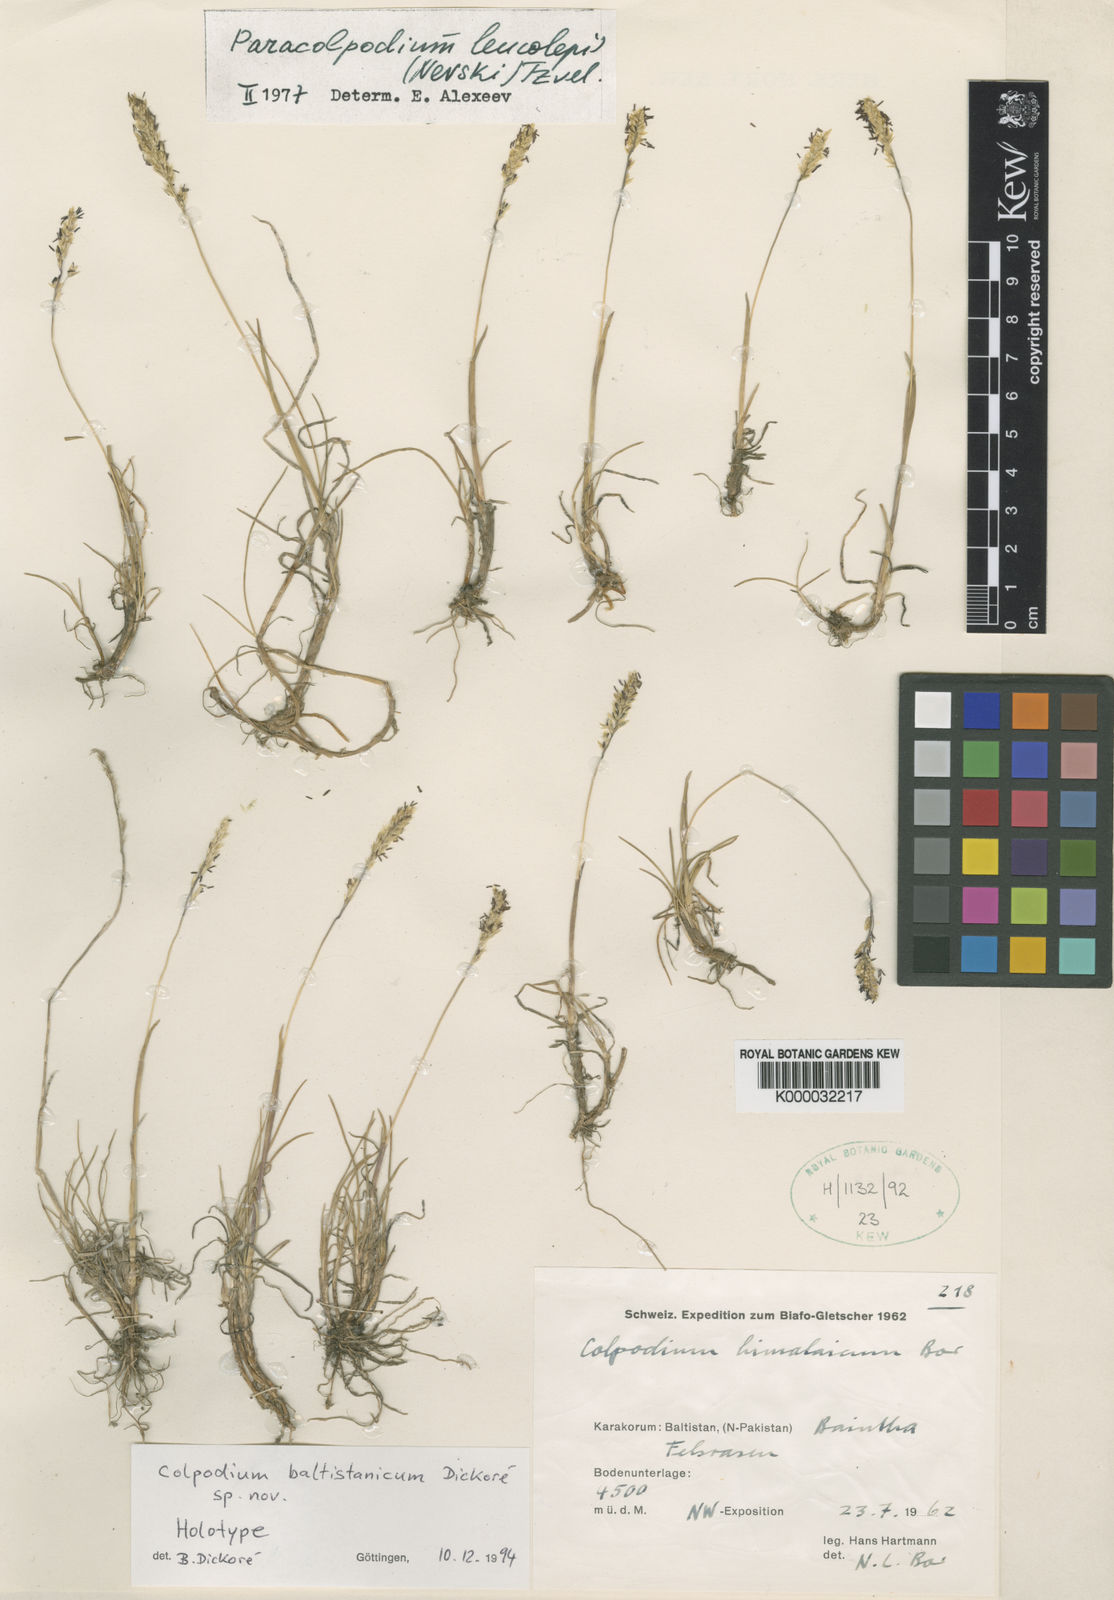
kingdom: Plantae
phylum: Tracheophyta
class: Liliopsida
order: Poales
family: Poaceae
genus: Paracolpodium
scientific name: Paracolpodium altaicum
